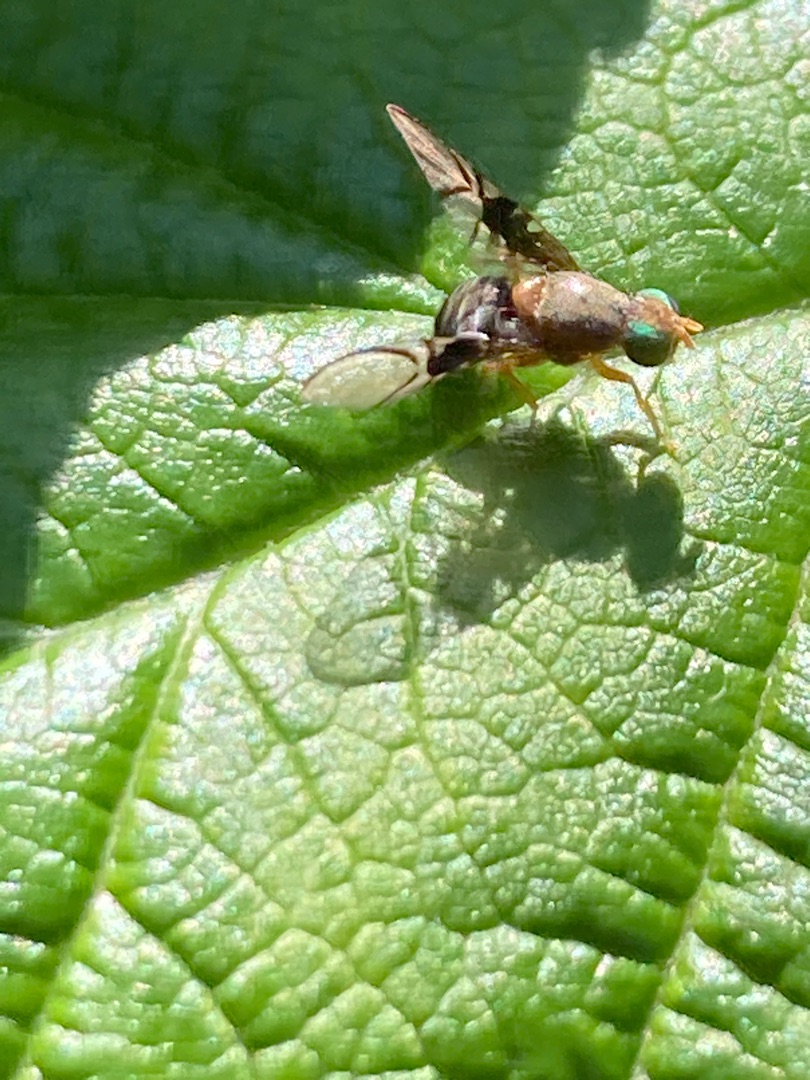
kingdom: Animalia
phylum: Arthropoda
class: Insecta
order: Diptera
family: Tephritidae
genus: Anomoia
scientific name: Anomoia purmunda
